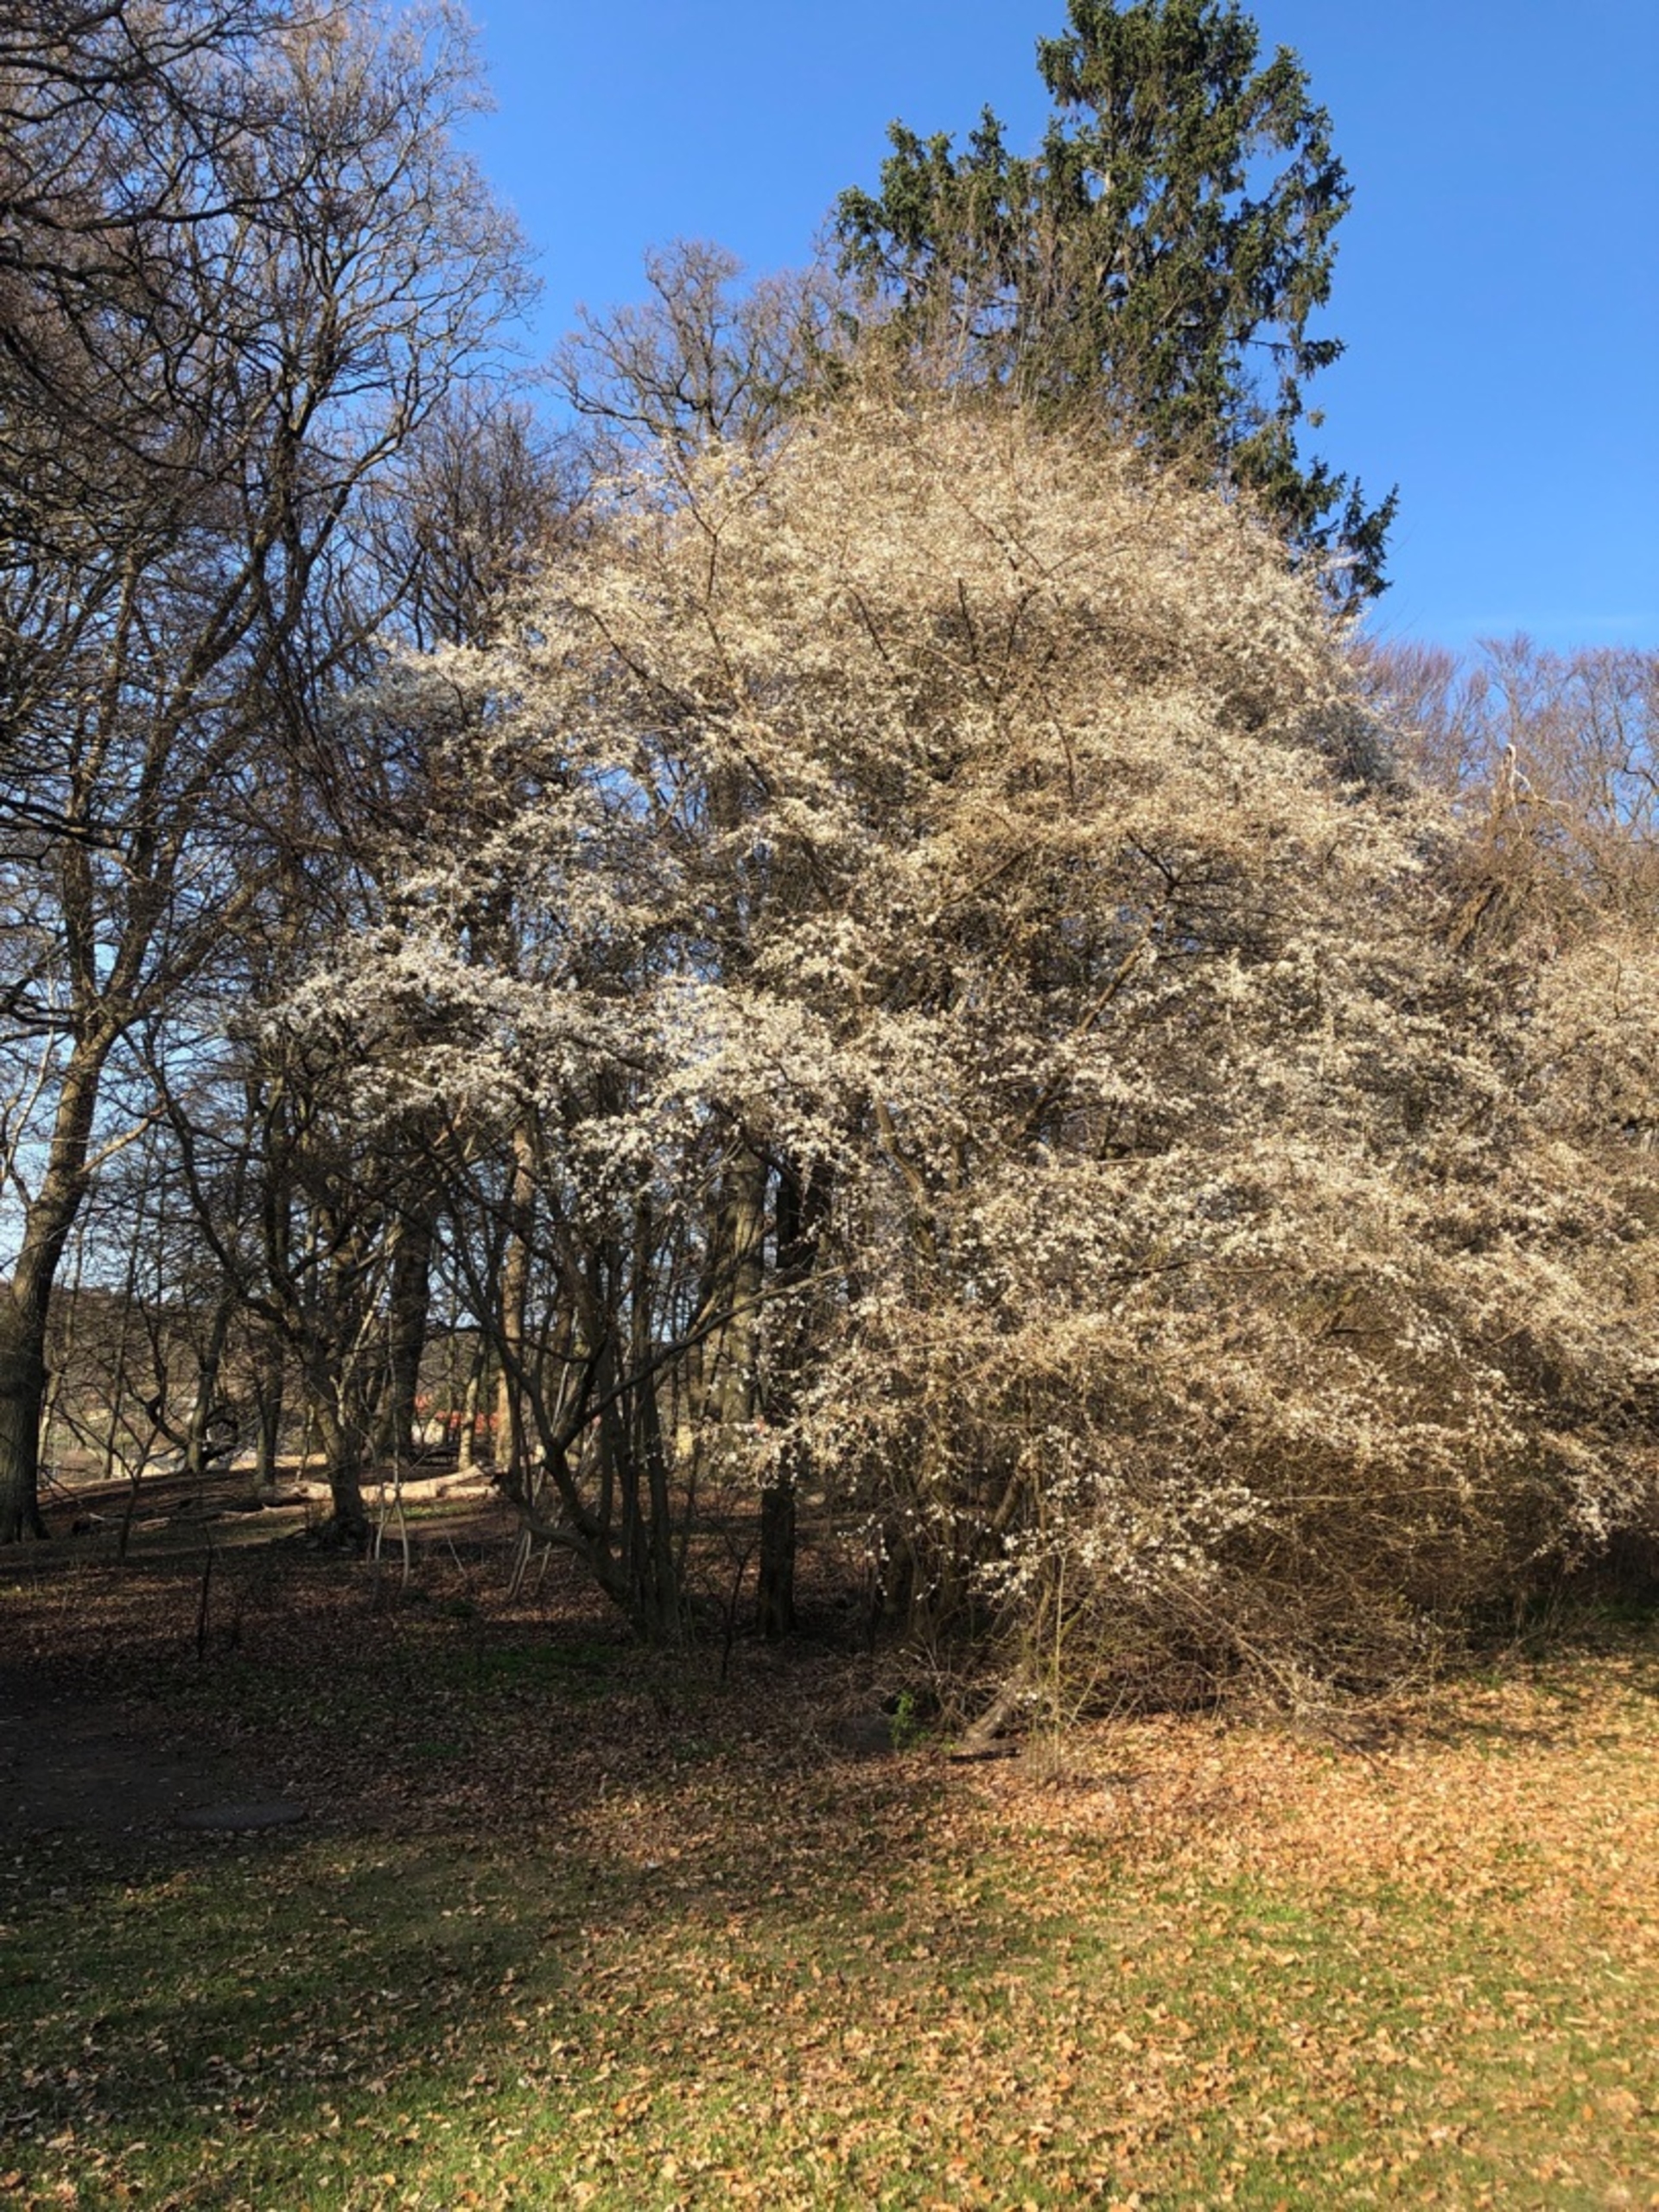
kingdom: Plantae
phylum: Tracheophyta
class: Magnoliopsida
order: Rosales
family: Rosaceae
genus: Prunus
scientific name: Prunus cerasifera
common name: Mirabel
